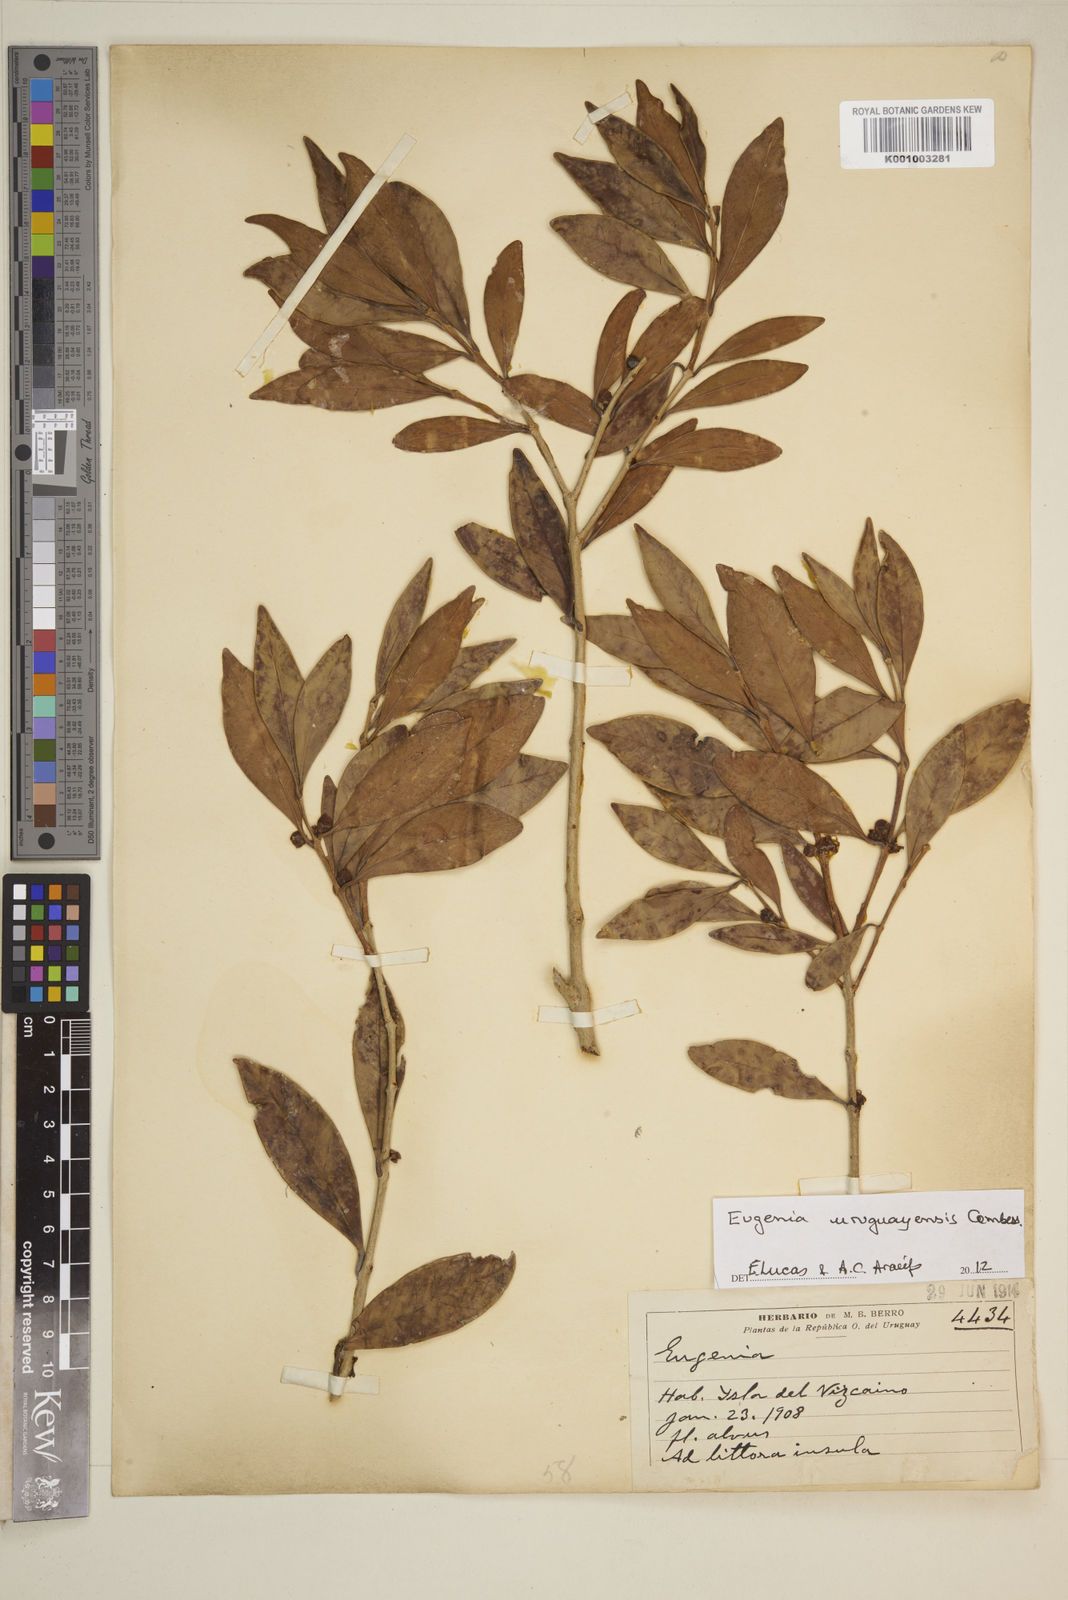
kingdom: Plantae
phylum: Tracheophyta
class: Magnoliopsida
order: Myrtales
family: Myrtaceae
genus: Eugenia
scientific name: Eugenia
